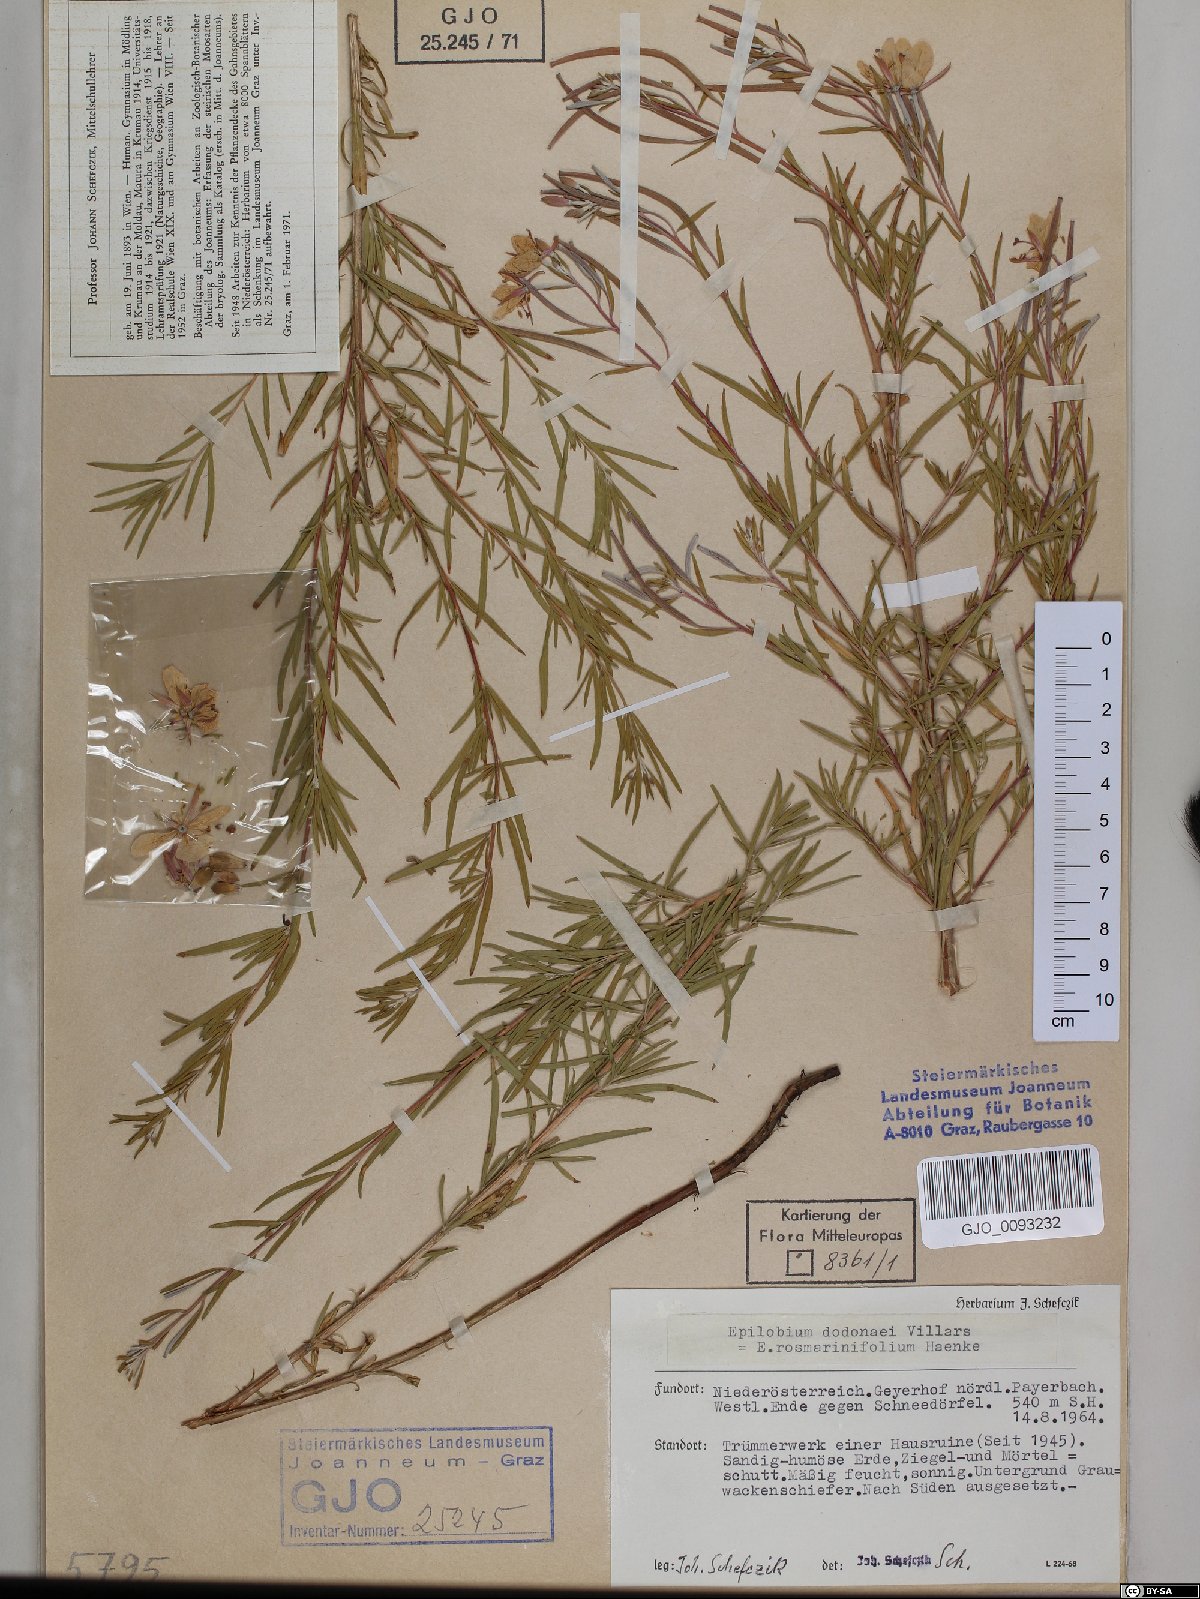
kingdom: Plantae
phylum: Tracheophyta
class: Magnoliopsida
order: Myrtales
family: Onagraceae
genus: Chamaenerion
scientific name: Chamaenerion dodonaei
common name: Rosemary-leaved willowherb
